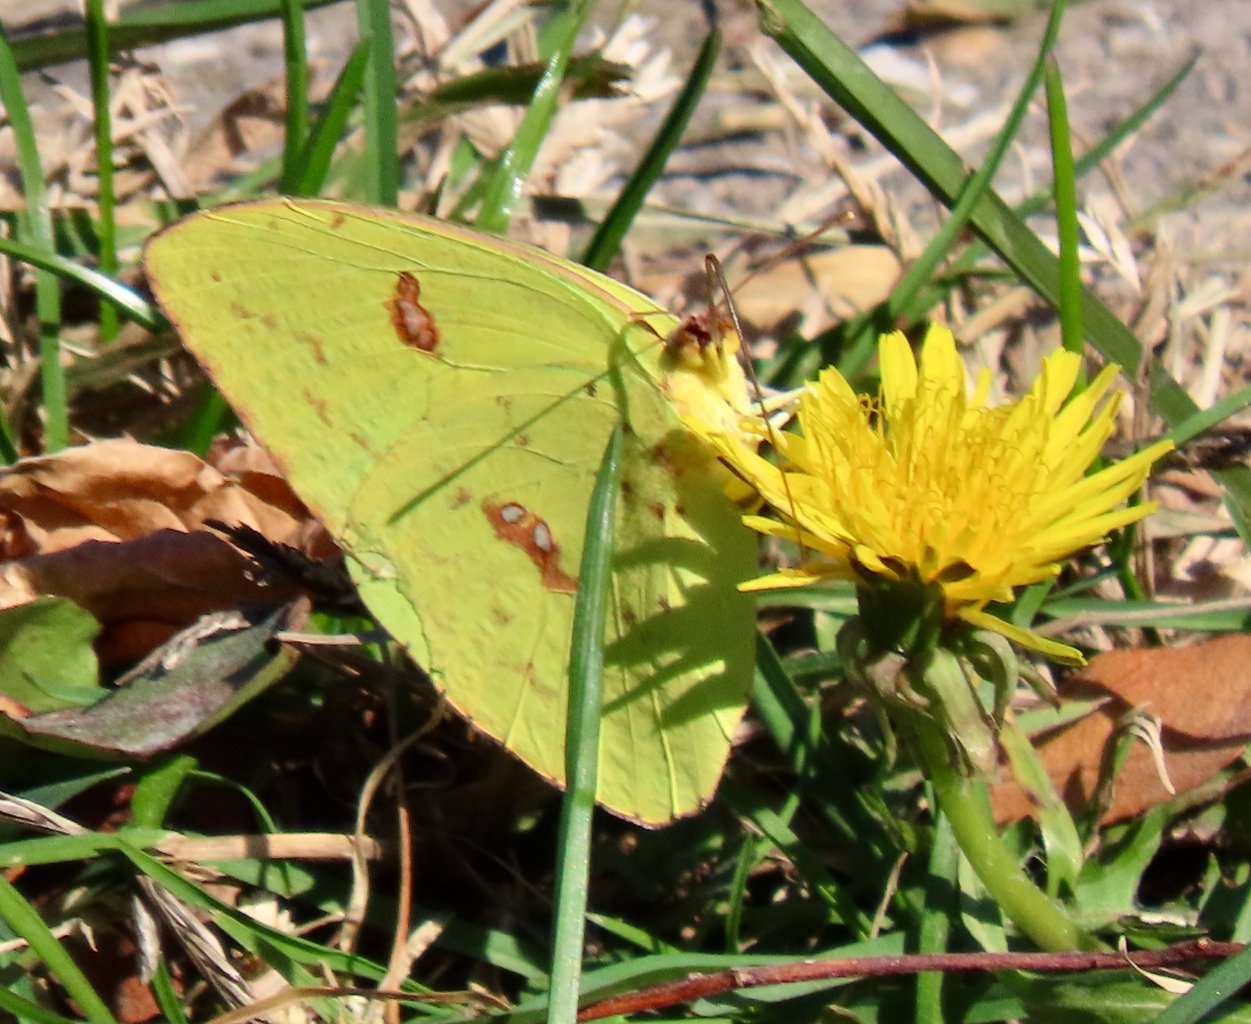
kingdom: Animalia
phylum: Arthropoda
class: Insecta
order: Lepidoptera
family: Pieridae
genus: Phoebis
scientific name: Phoebis sennae
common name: Cloudless Sulphur
